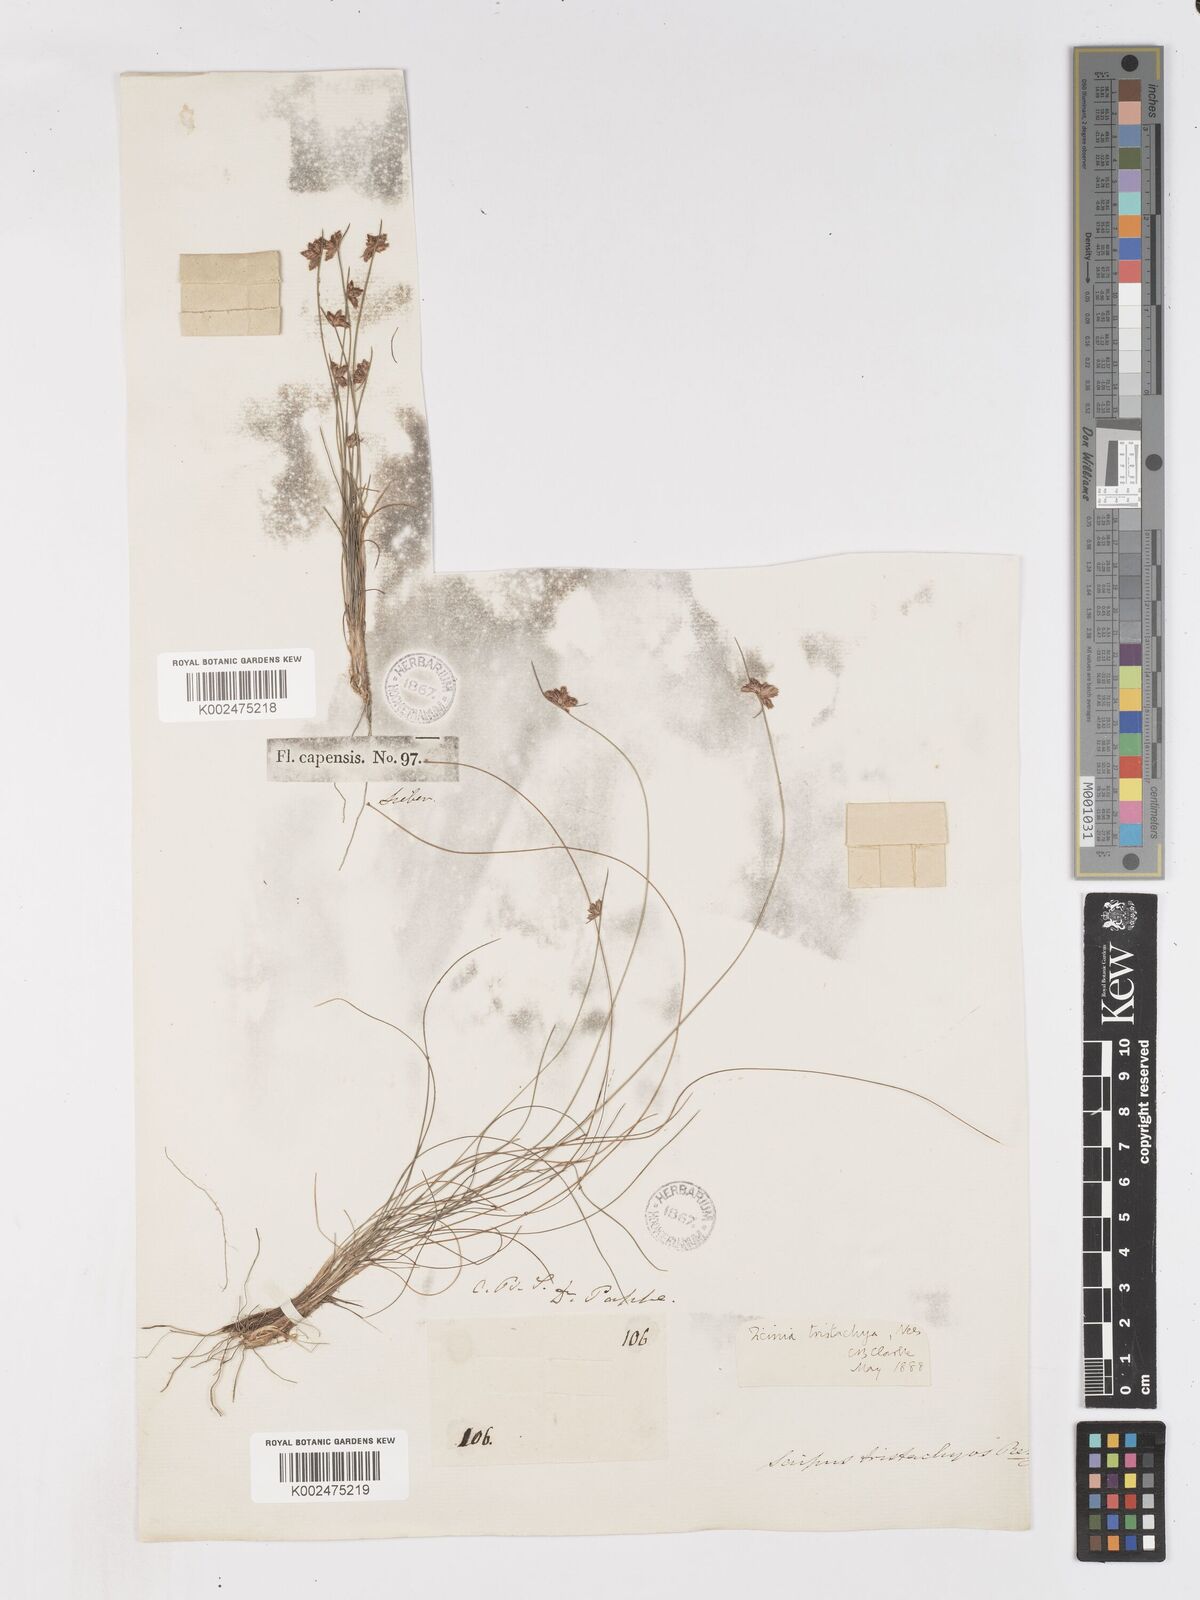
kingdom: Plantae
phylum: Tracheophyta
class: Liliopsida
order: Poales
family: Cyperaceae
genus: Ficinia
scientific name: Ficinia tristachya
